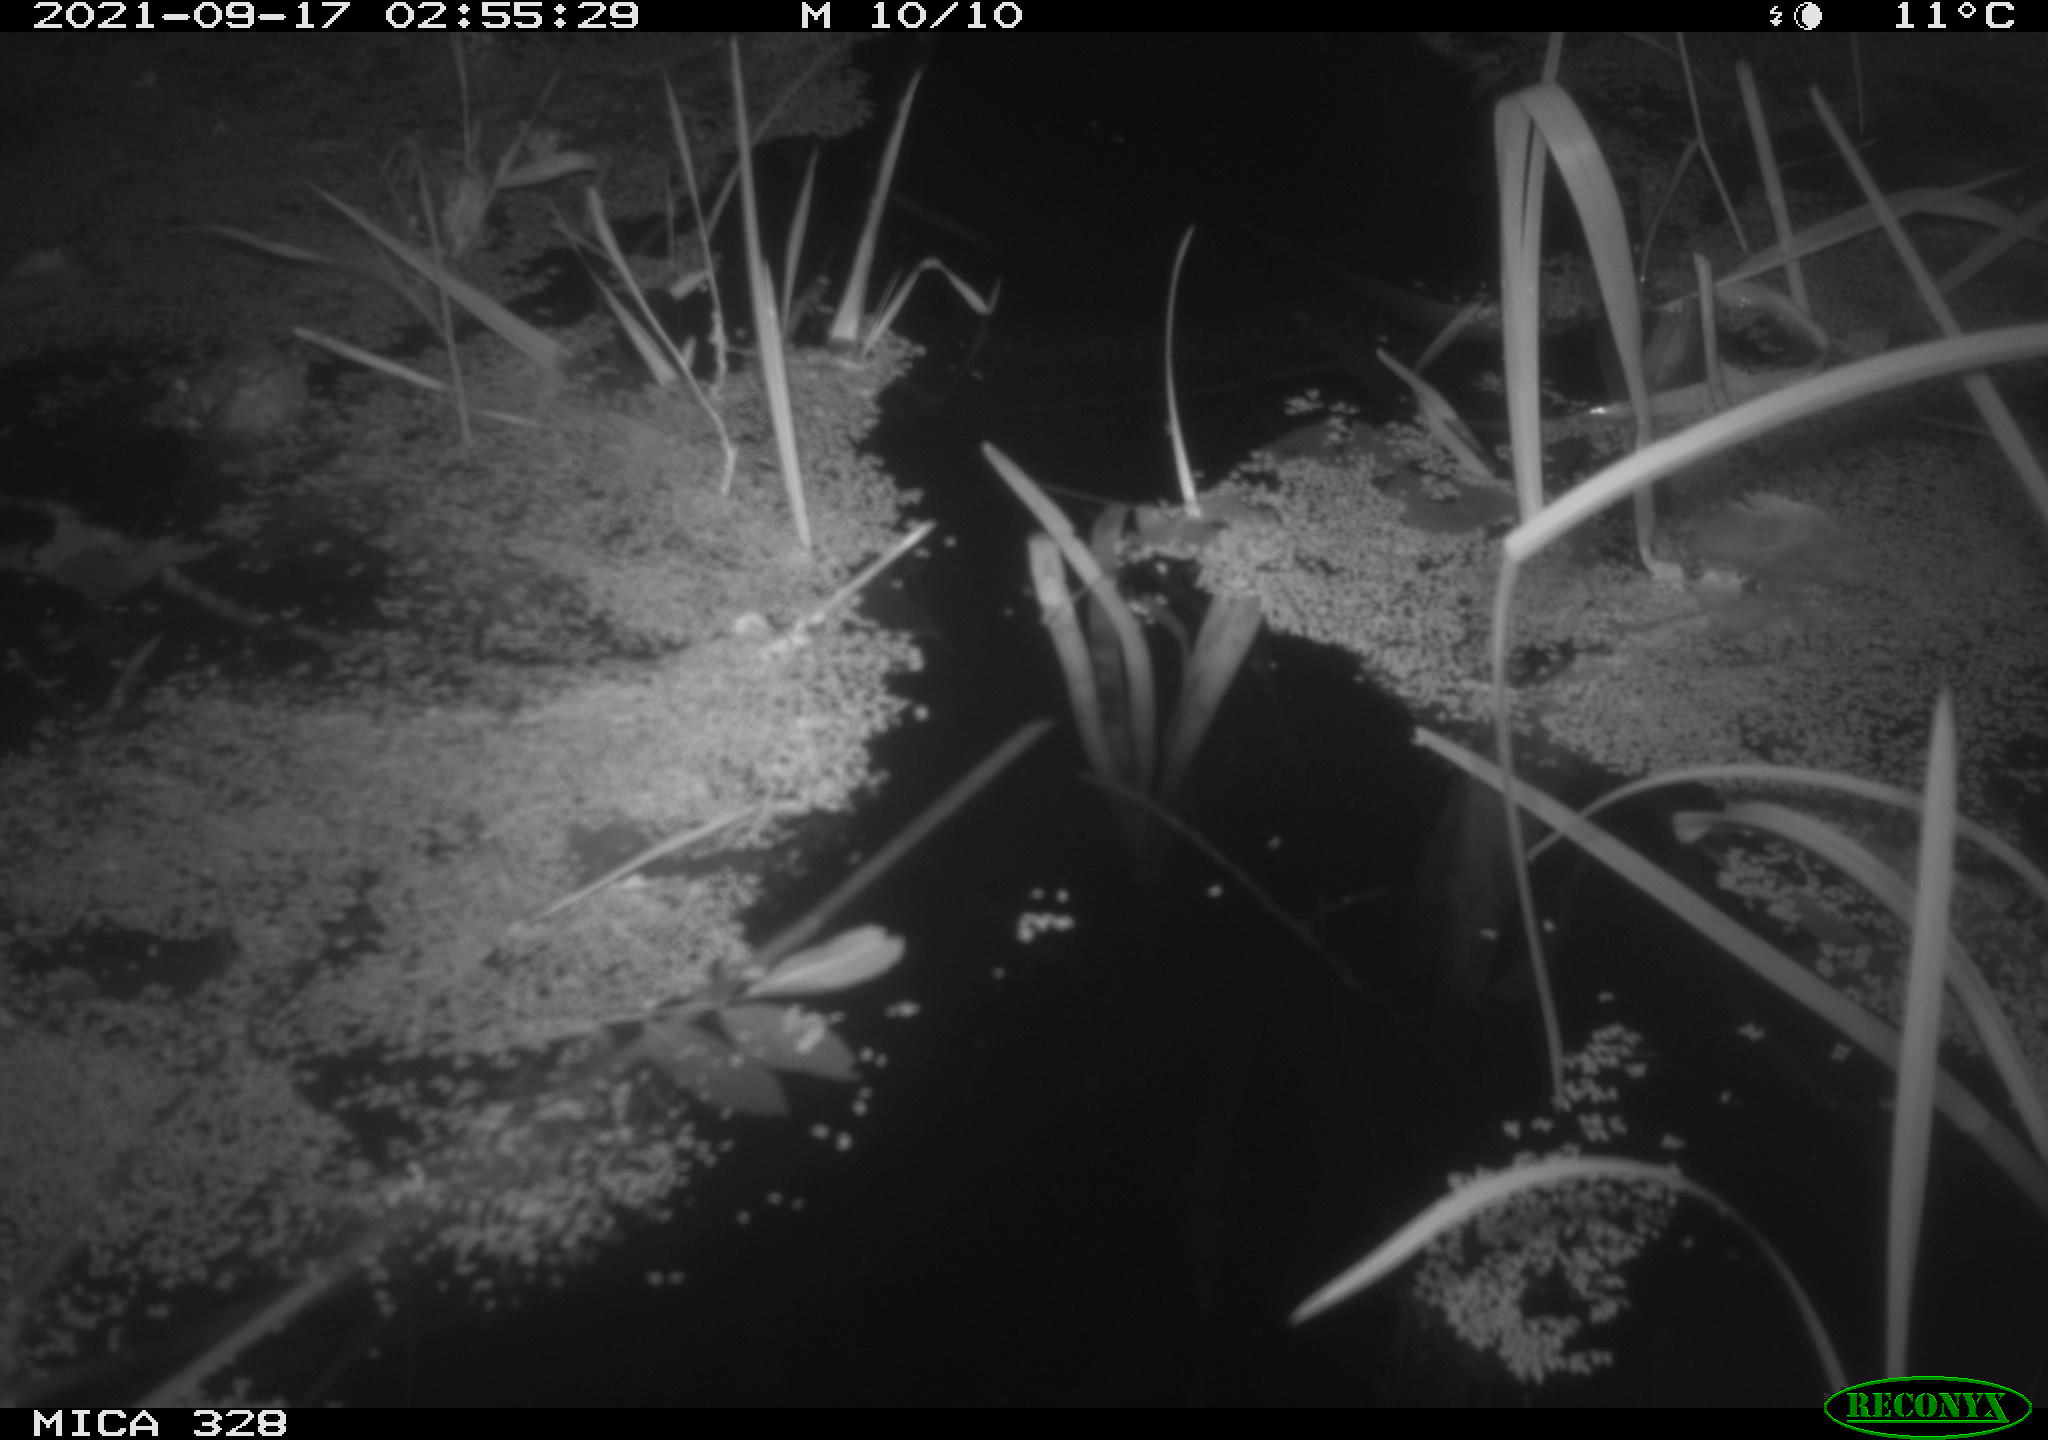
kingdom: Animalia
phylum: Chordata
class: Mammalia
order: Rodentia
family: Cricetidae
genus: Ondatra
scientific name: Ondatra zibethicus
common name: Muskrat
